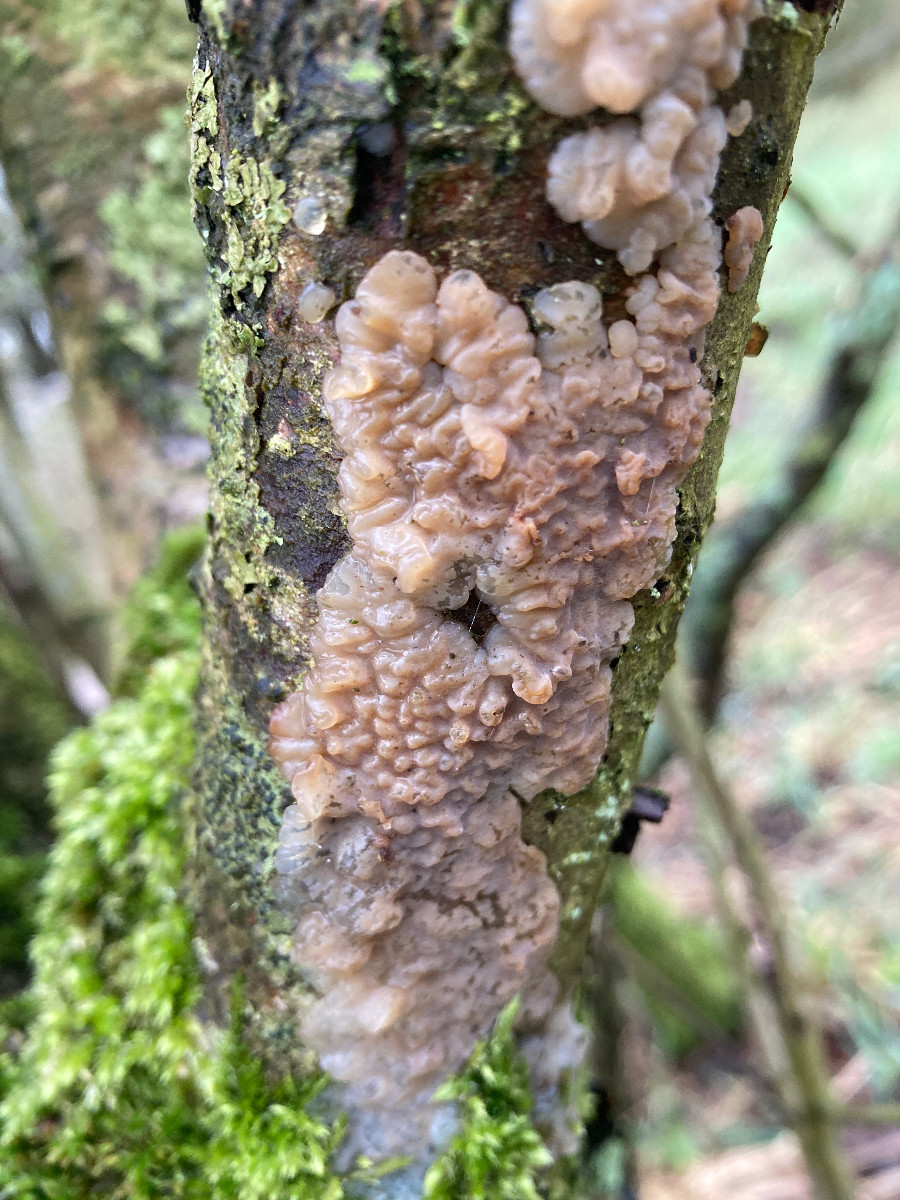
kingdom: Fungi
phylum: Basidiomycota
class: Agaricomycetes
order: Auriculariales
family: Auriculariaceae
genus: Exidia
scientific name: Exidia thuretiana
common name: hvidlig bævretop
